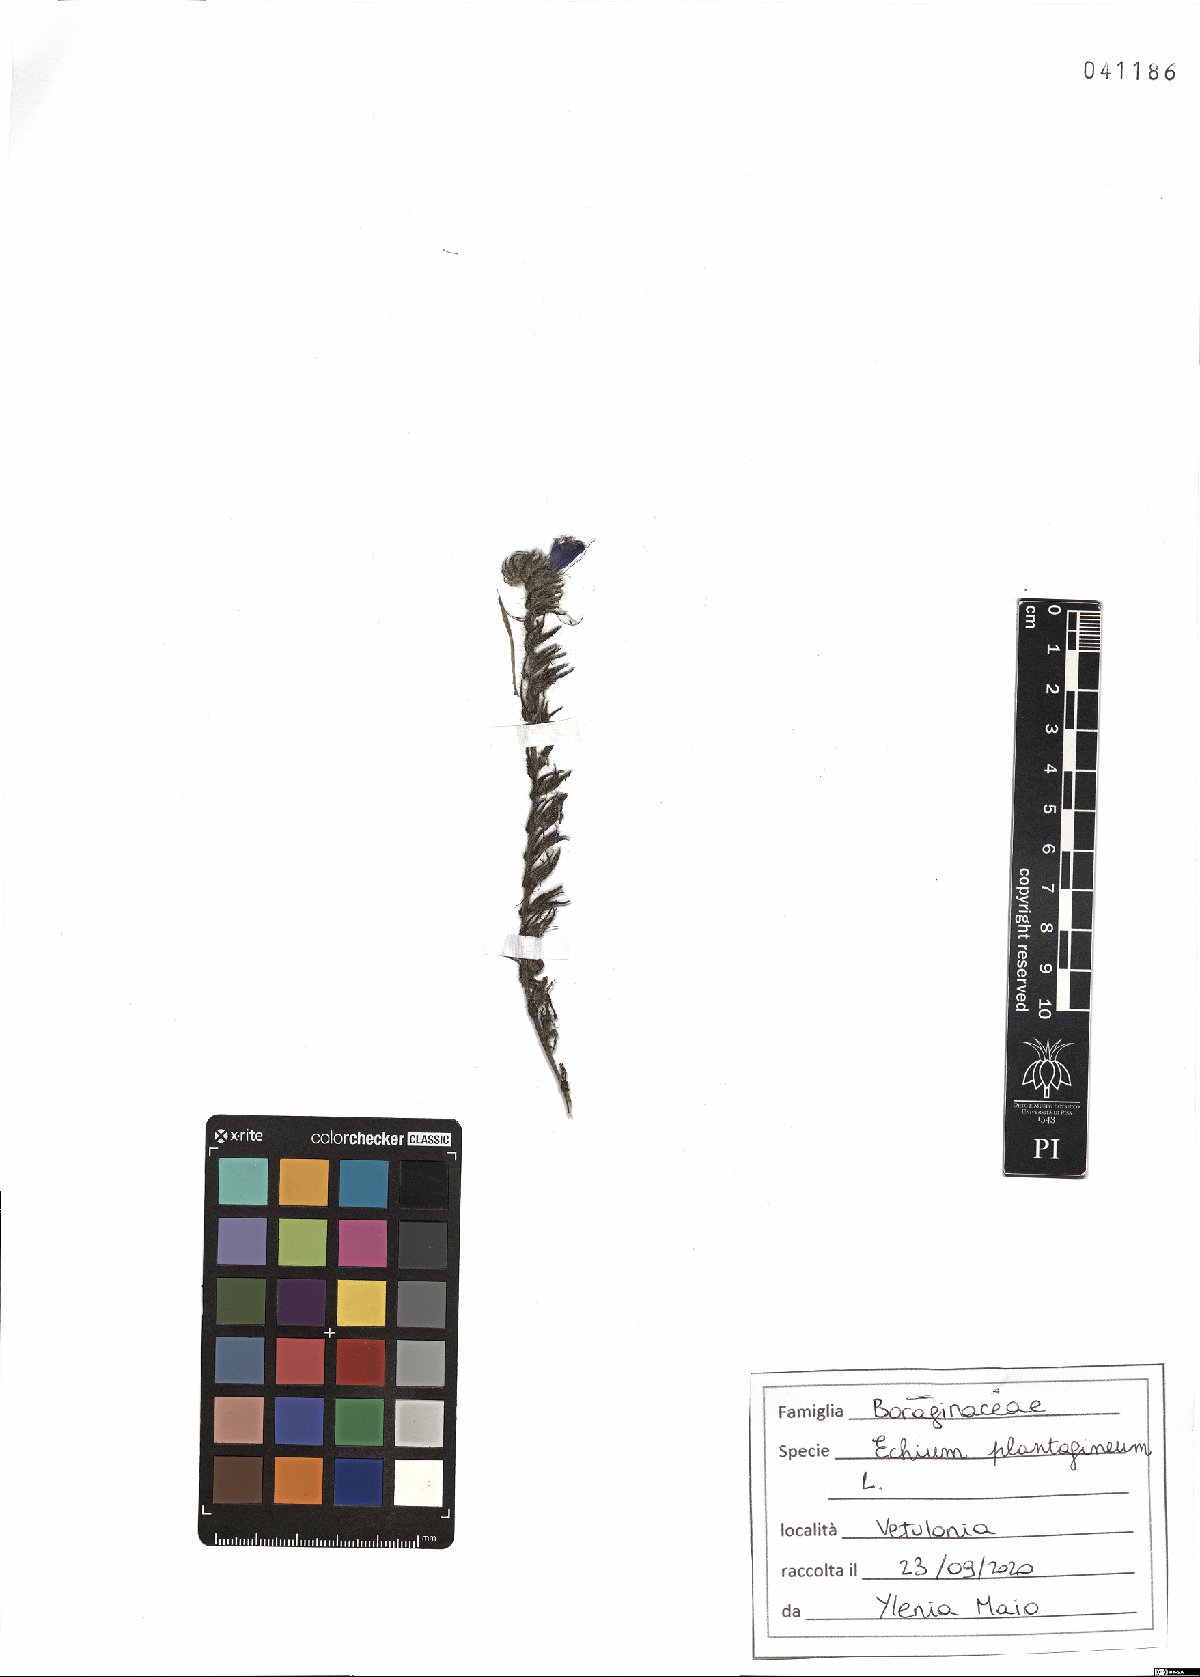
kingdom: Plantae
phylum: Tracheophyta
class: Magnoliopsida
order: Boraginales
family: Boraginaceae
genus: Echium
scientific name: Echium plantagineum
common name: Purple viper's-bugloss
